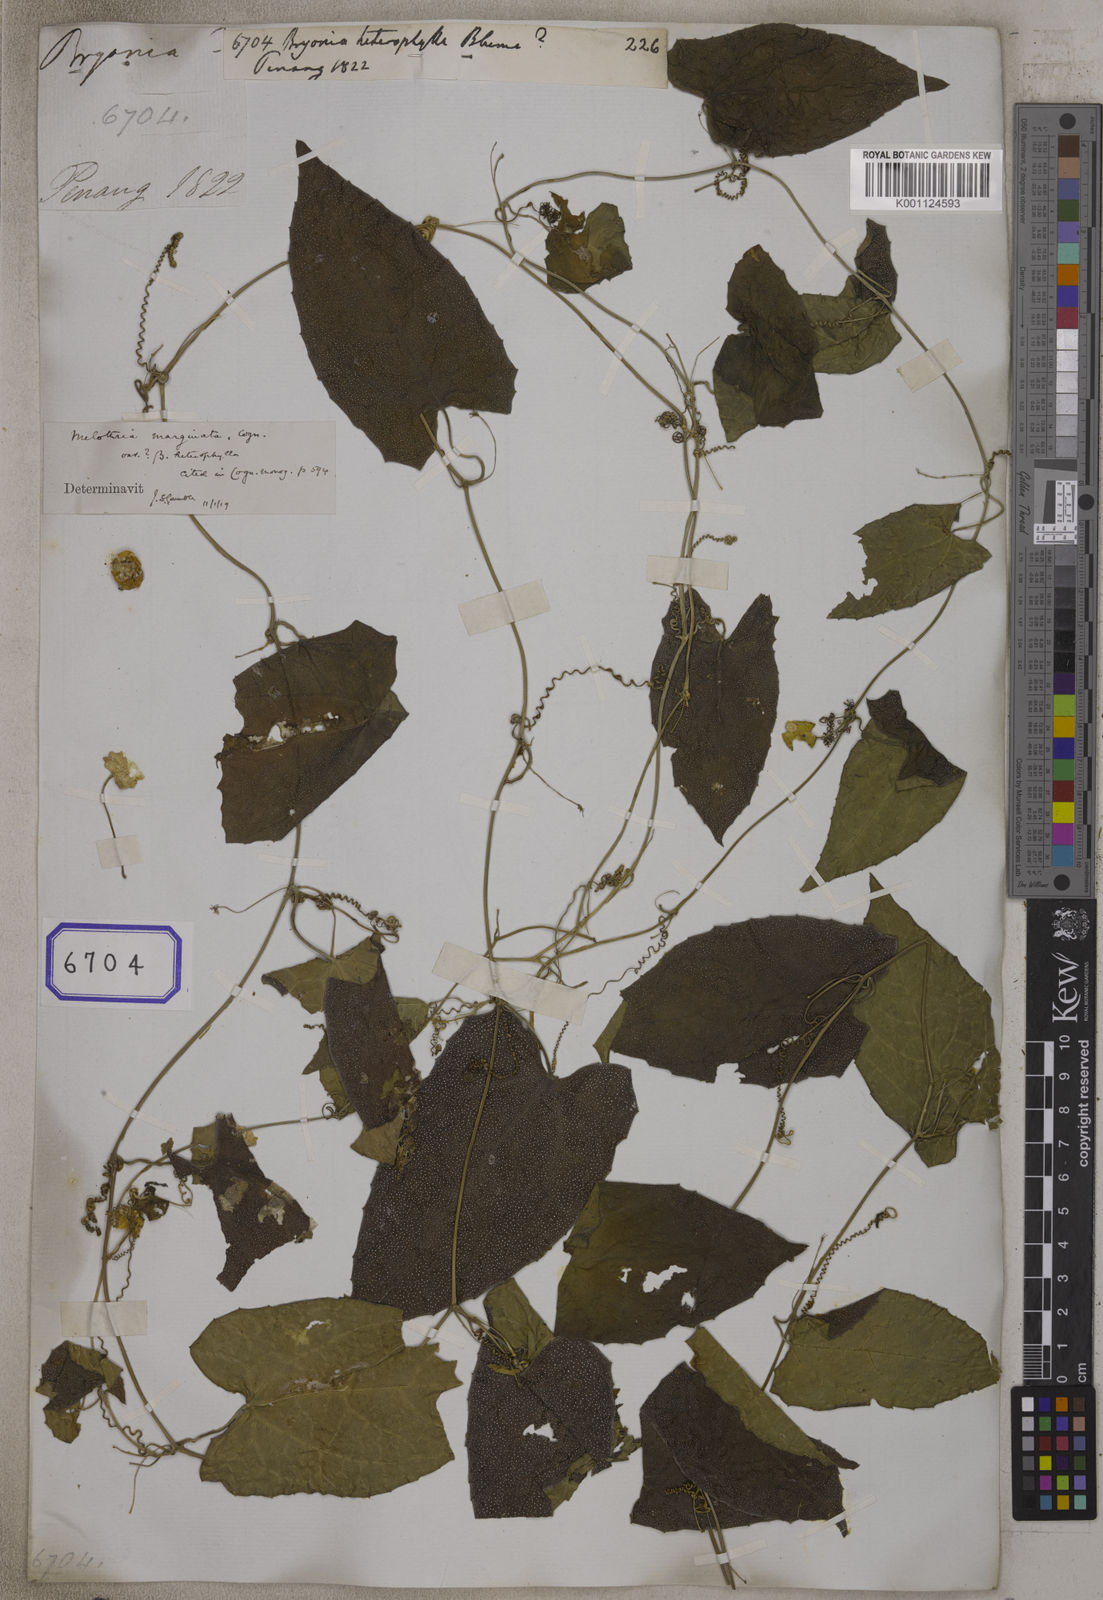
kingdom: Plantae
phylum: Tracheophyta
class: Magnoliopsida
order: Cucurbitales
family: Cucurbitaceae
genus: Bryonia
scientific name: Bryonia
